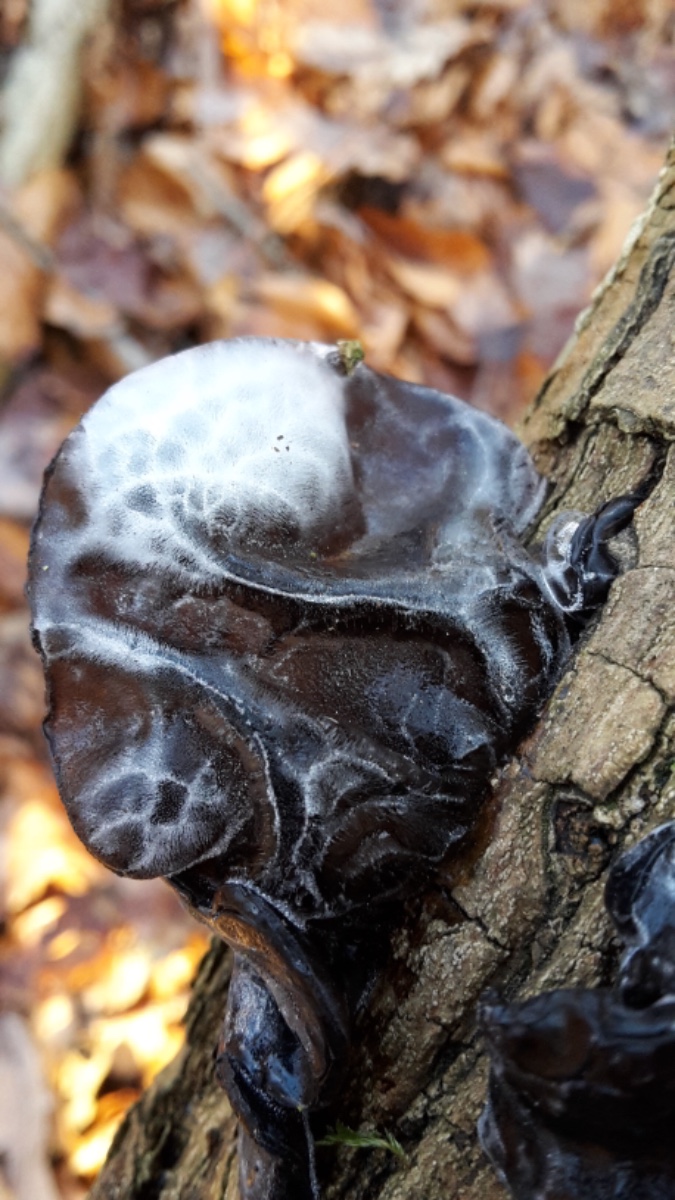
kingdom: Fungi
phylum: Basidiomycota
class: Agaricomycetes
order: Auriculariales
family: Auriculariaceae
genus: Exidia
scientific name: Exidia glandulosa
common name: ege-bævretop
